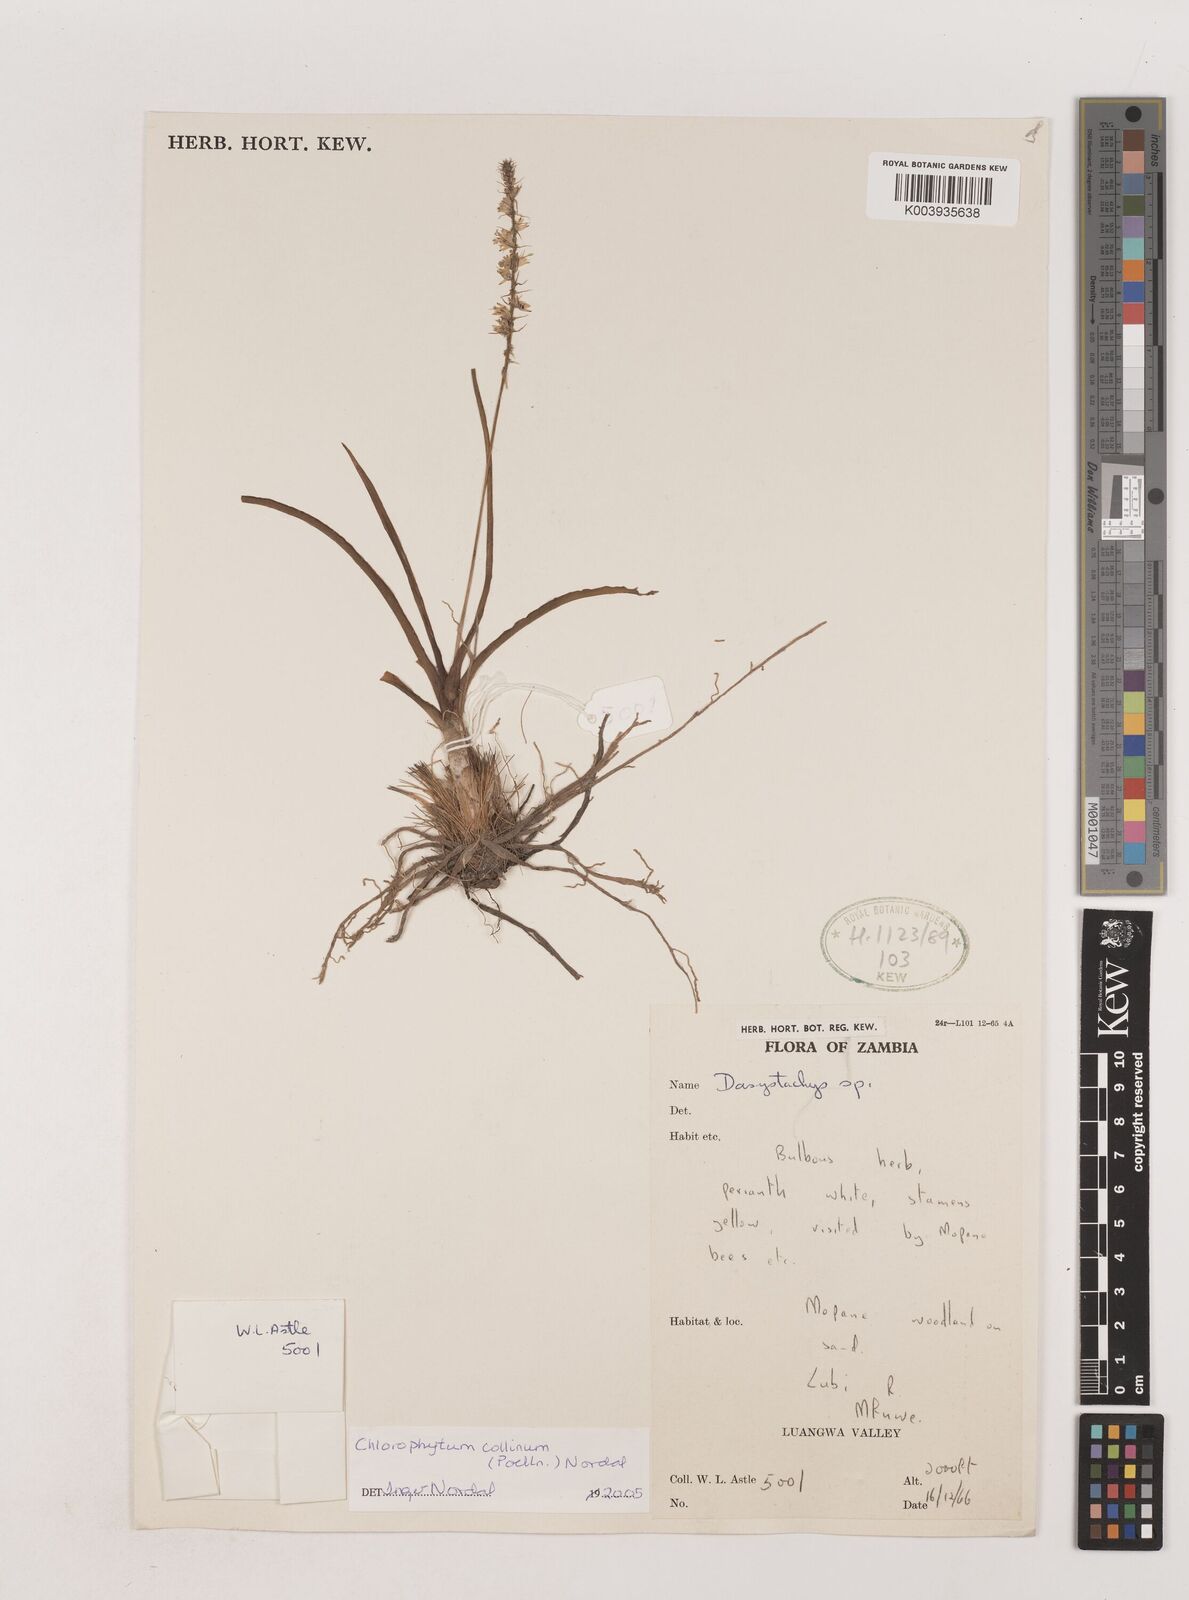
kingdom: Plantae
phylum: Tracheophyta
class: Liliopsida
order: Asparagales
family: Asparagaceae
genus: Chlorophytum
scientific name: Chlorophytum collinum
